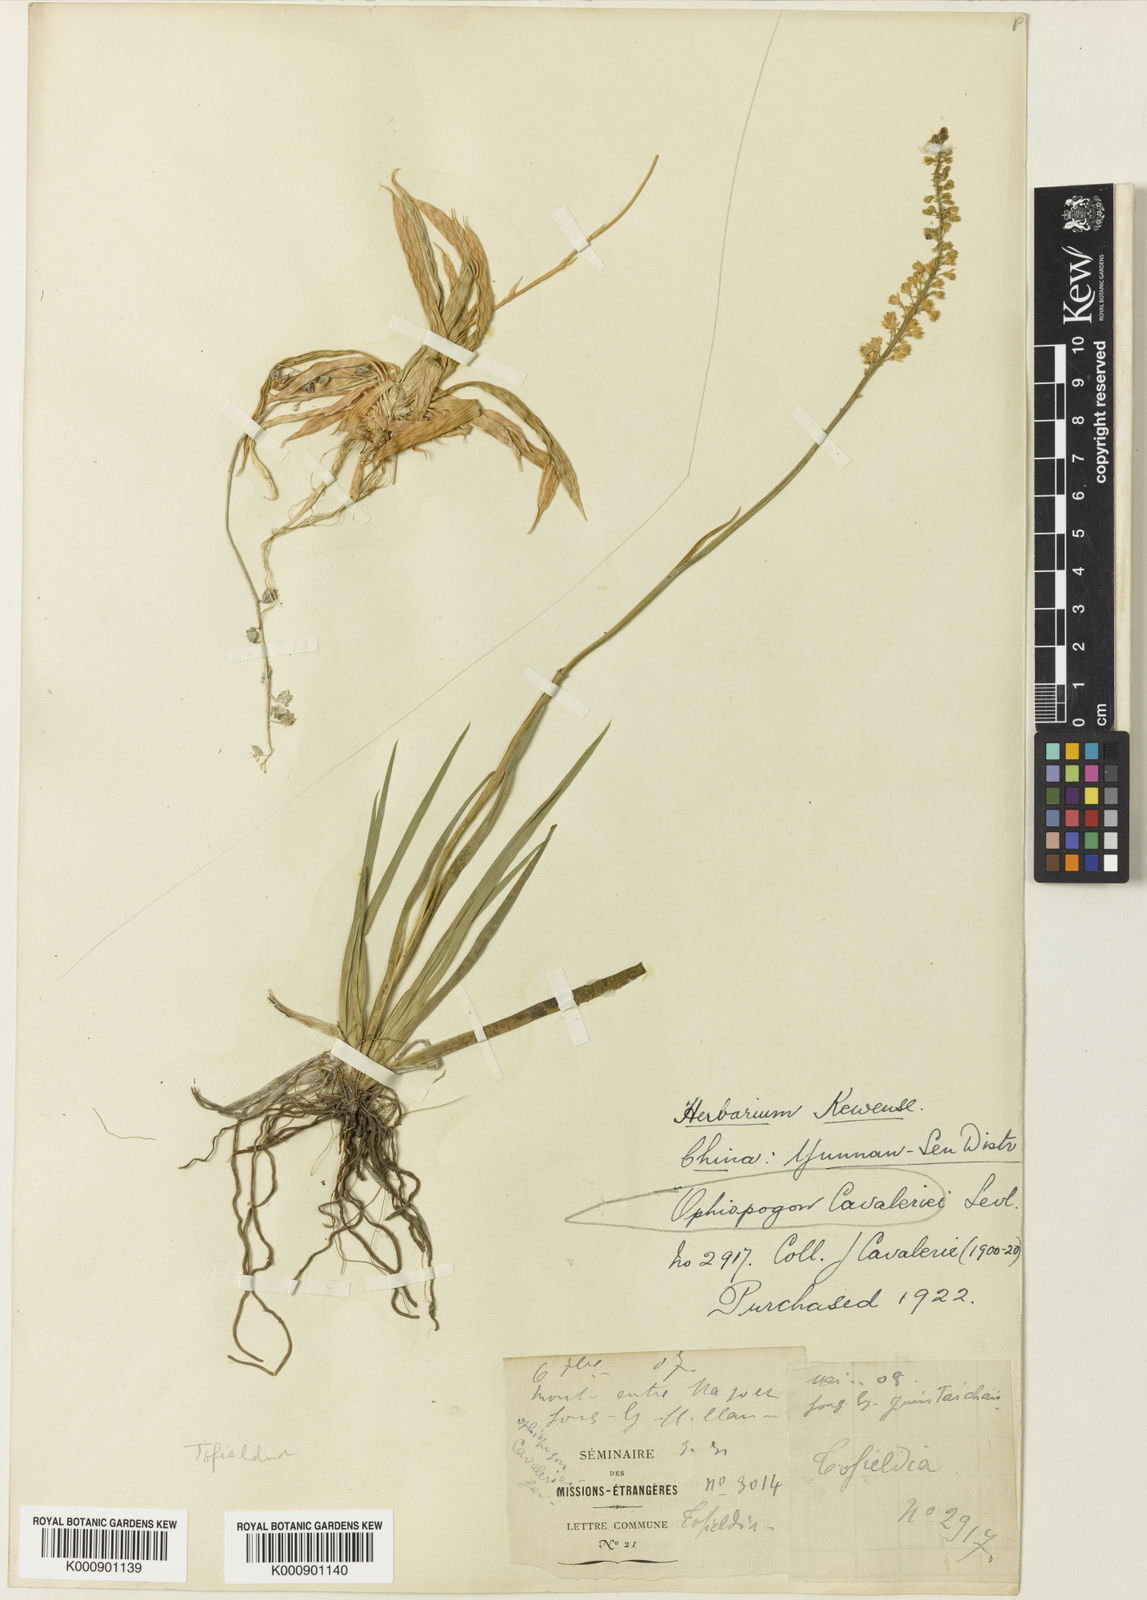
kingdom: Plantae
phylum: Tracheophyta
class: Liliopsida
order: Alismatales
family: Tofieldiaceae
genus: Tofieldia
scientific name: Tofieldia divergens
